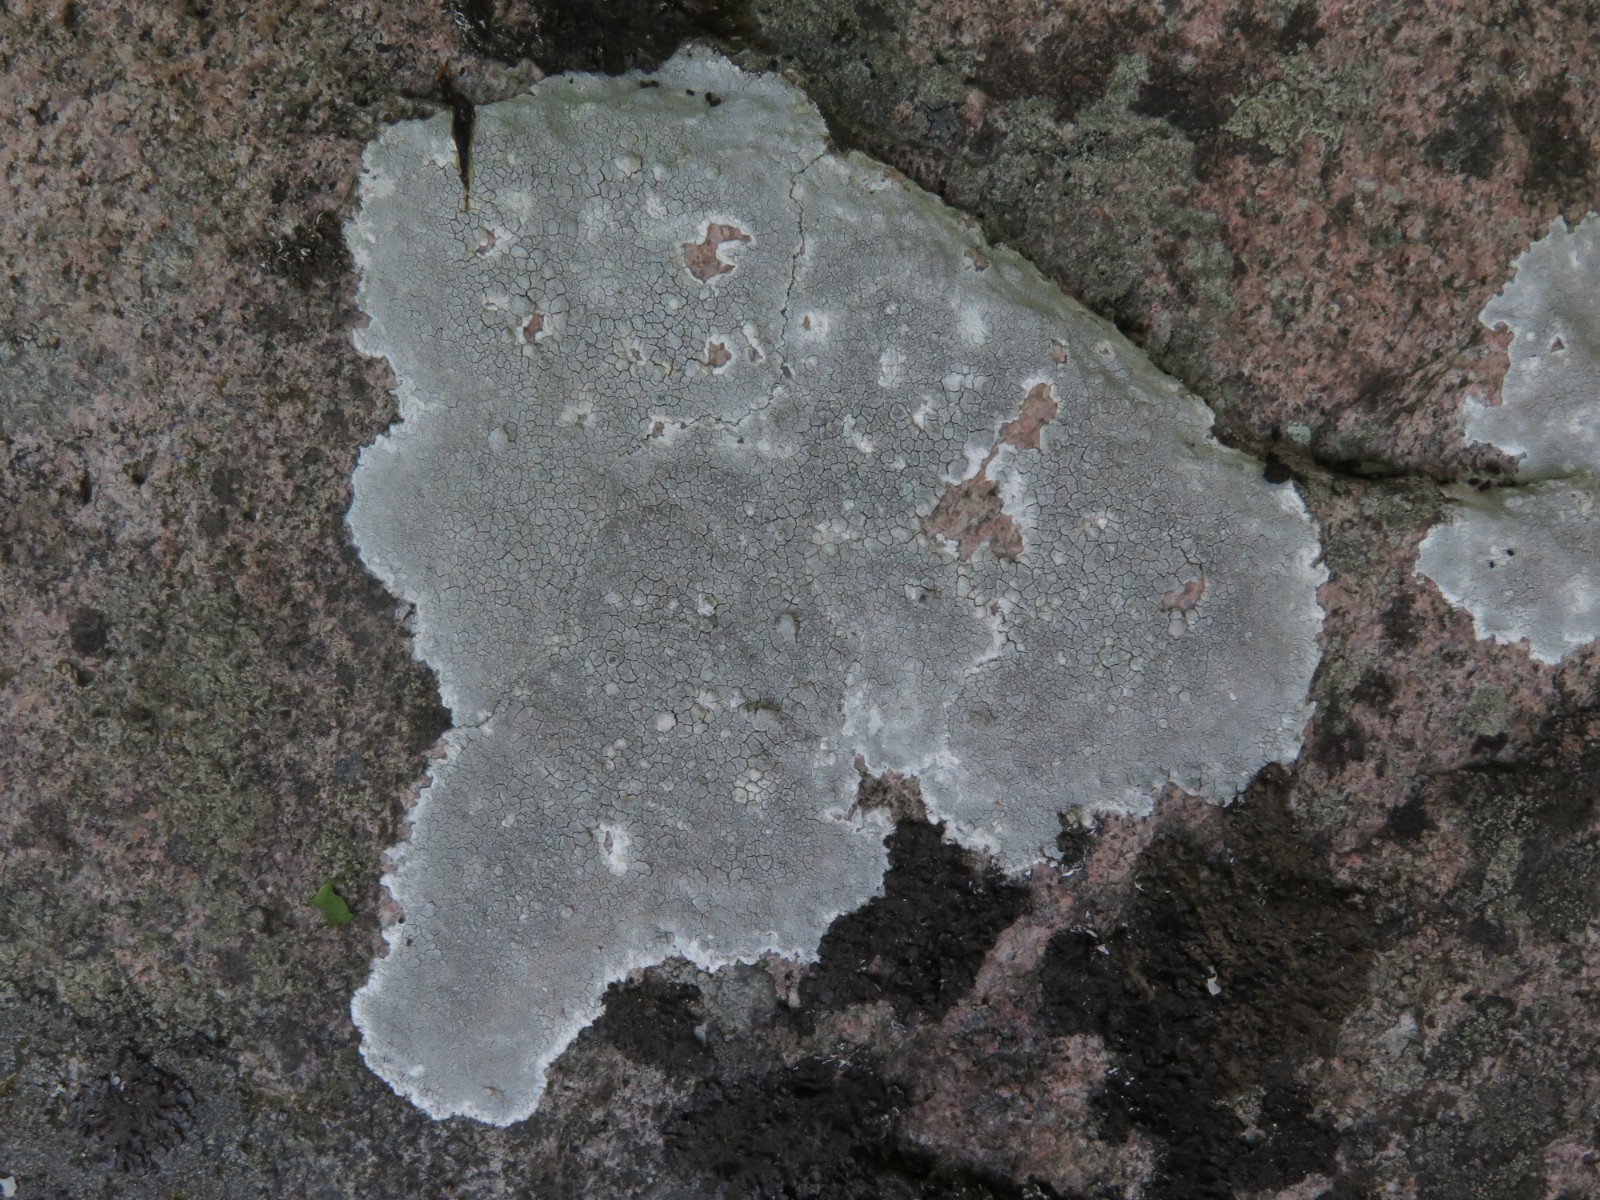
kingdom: Fungi
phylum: Ascomycota
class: Lecanoromycetes
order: Lecanorales
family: Lecanoraceae
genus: Glaucomaria
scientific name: Glaucomaria rupicola
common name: stengærde-kantskivelav
